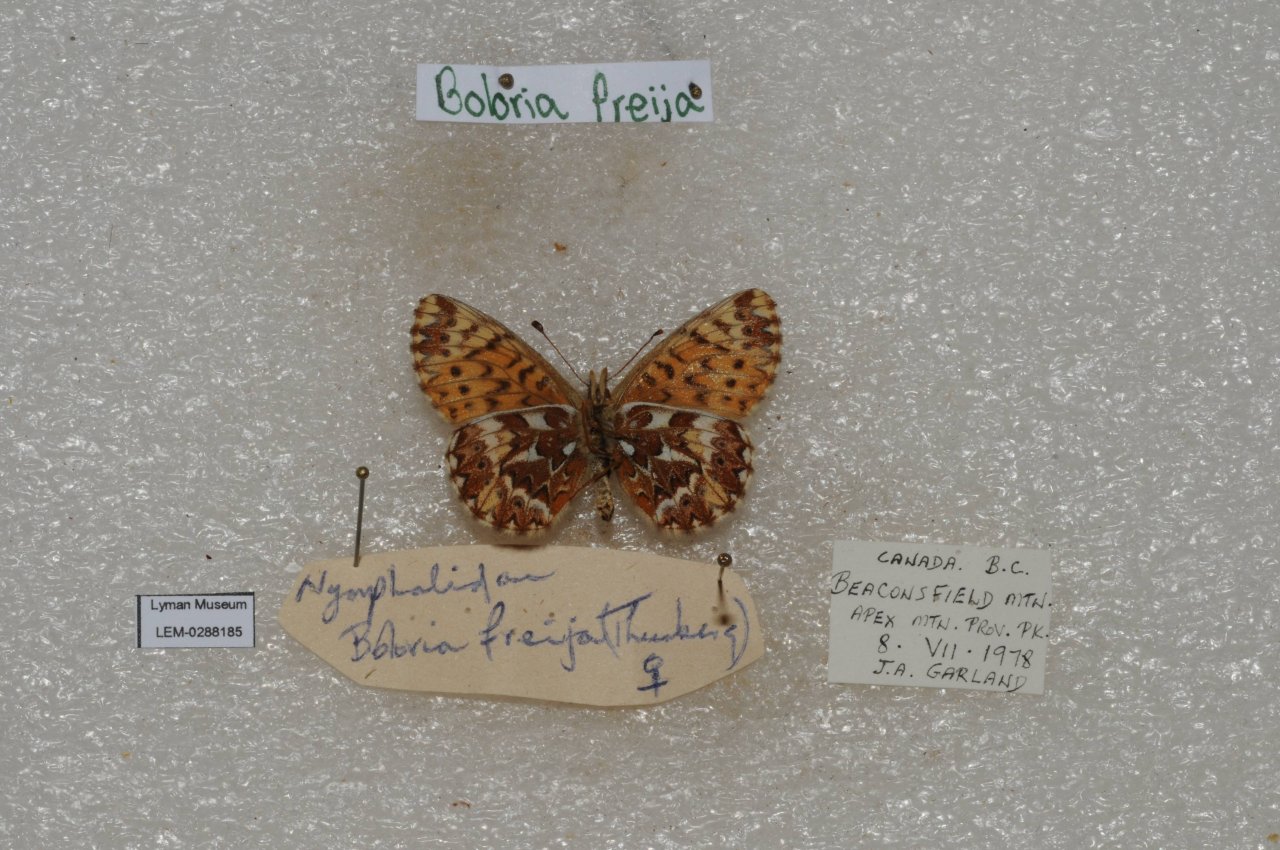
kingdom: Animalia
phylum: Arthropoda
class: Insecta
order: Lepidoptera
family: Nymphalidae
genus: Boloria
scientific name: Boloria freija
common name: Freija Fritillary
